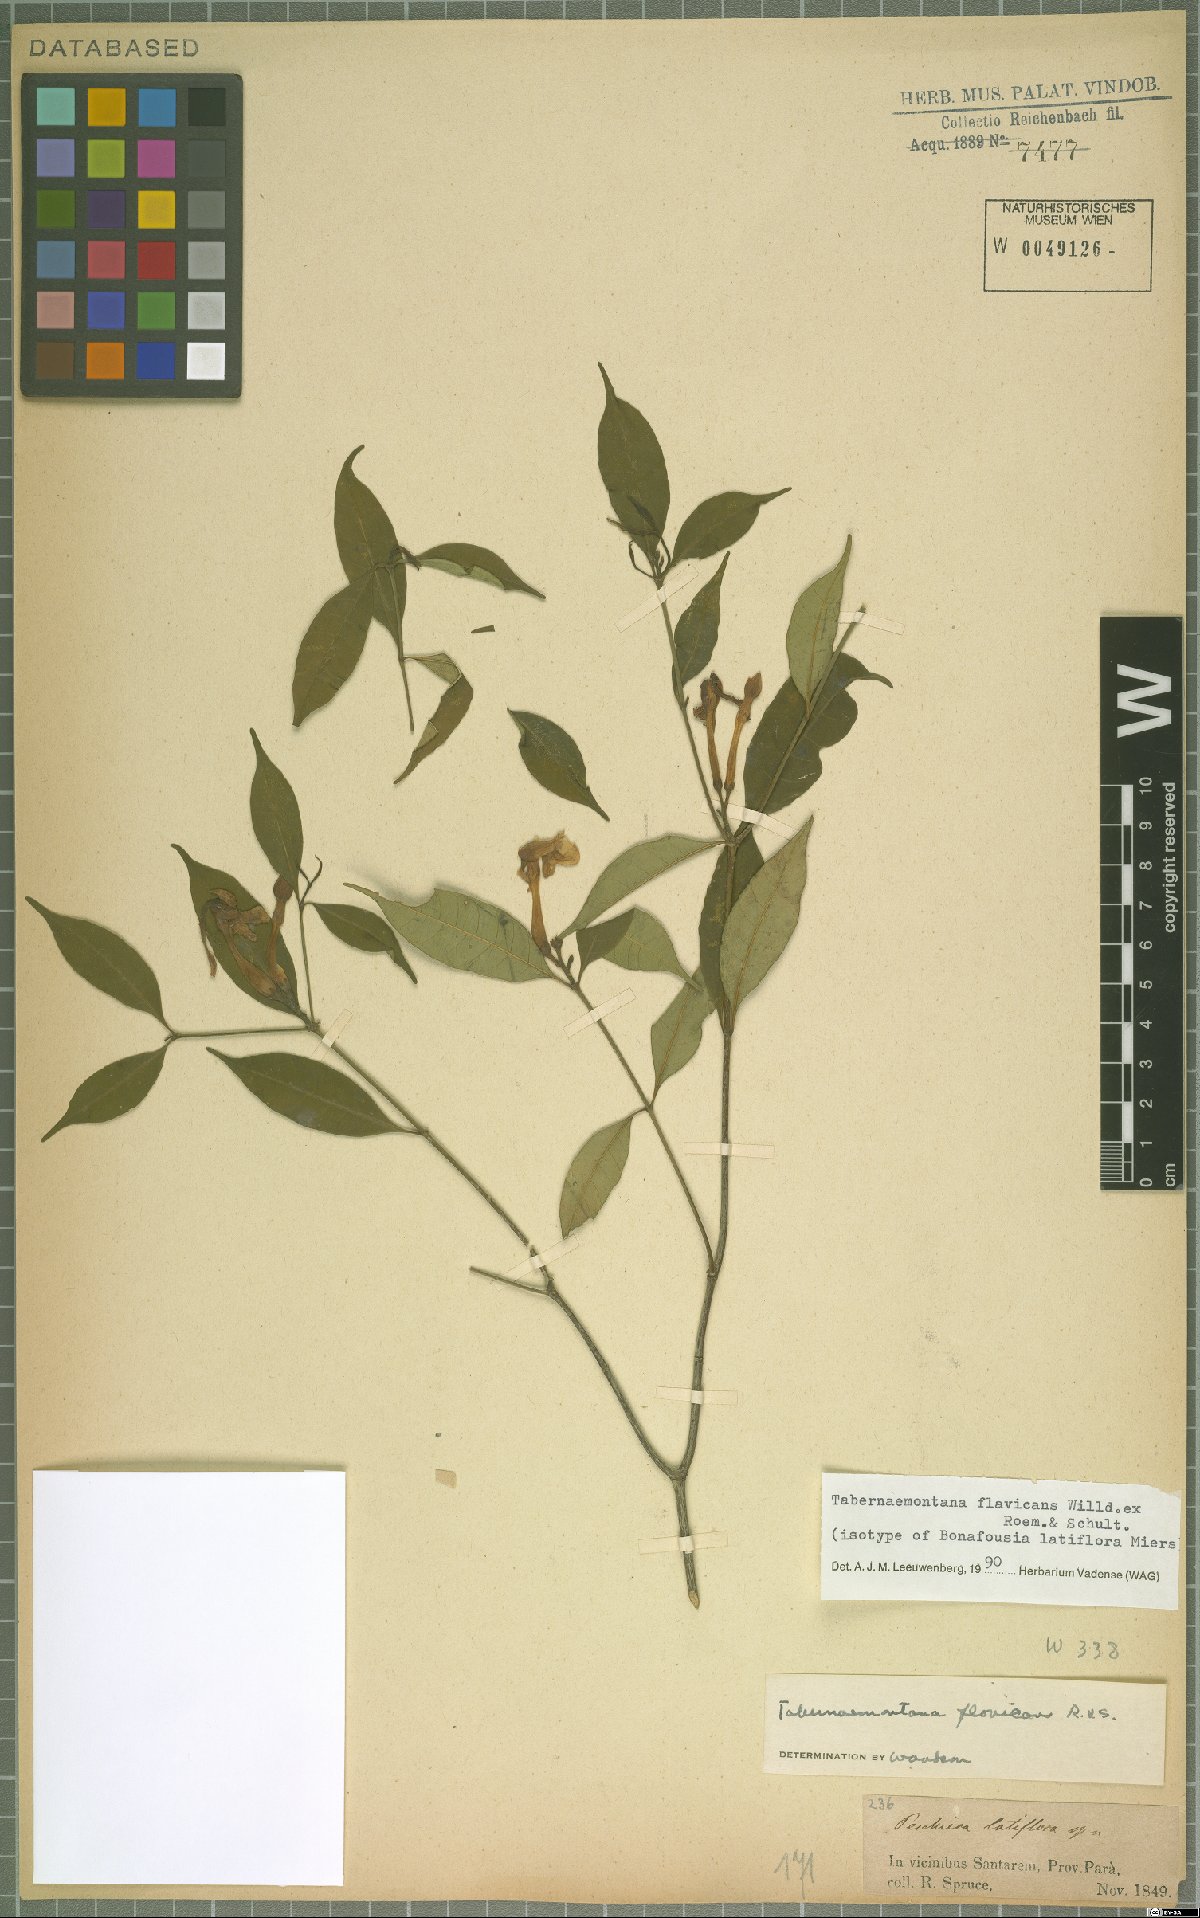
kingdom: Plantae
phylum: Tracheophyta
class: Magnoliopsida
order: Gentianales
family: Apocynaceae
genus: Tabernaemontana
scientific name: Tabernaemontana flavicans
